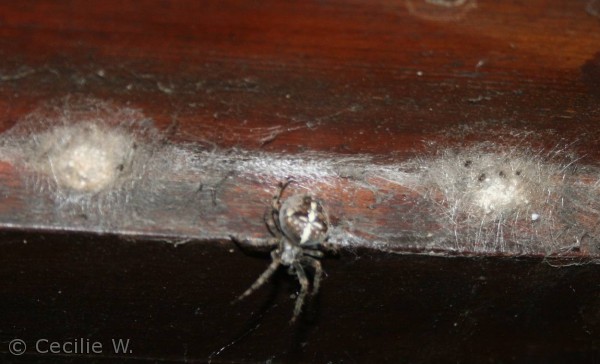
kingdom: Animalia
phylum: Arthropoda
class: Arachnida
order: Araneae
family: Araneidae
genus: Araneus
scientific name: Araneus diadematus
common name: Korsedderkop
